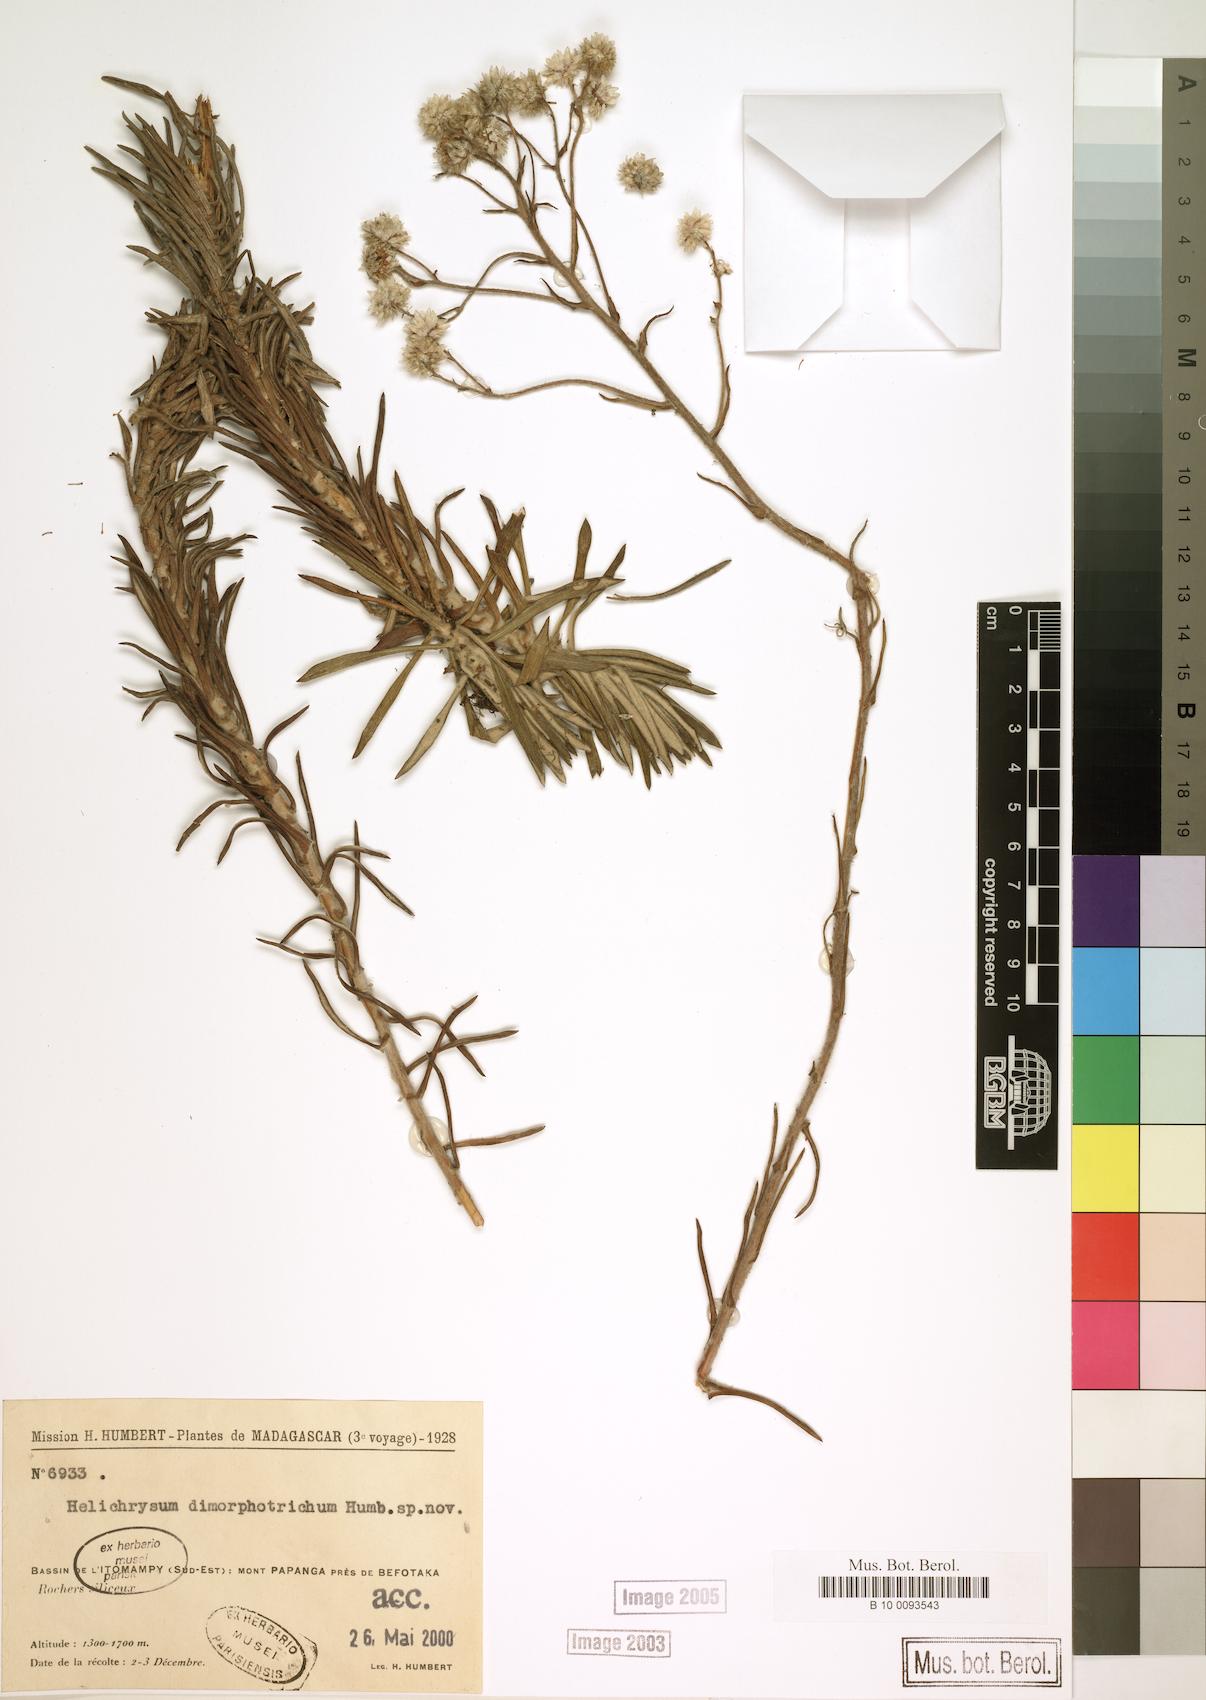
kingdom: Plantae
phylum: Tracheophyta
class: Magnoliopsida
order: Asterales
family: Asteraceae
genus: Helichrysum
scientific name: Helichrysum dimorphotrichum
